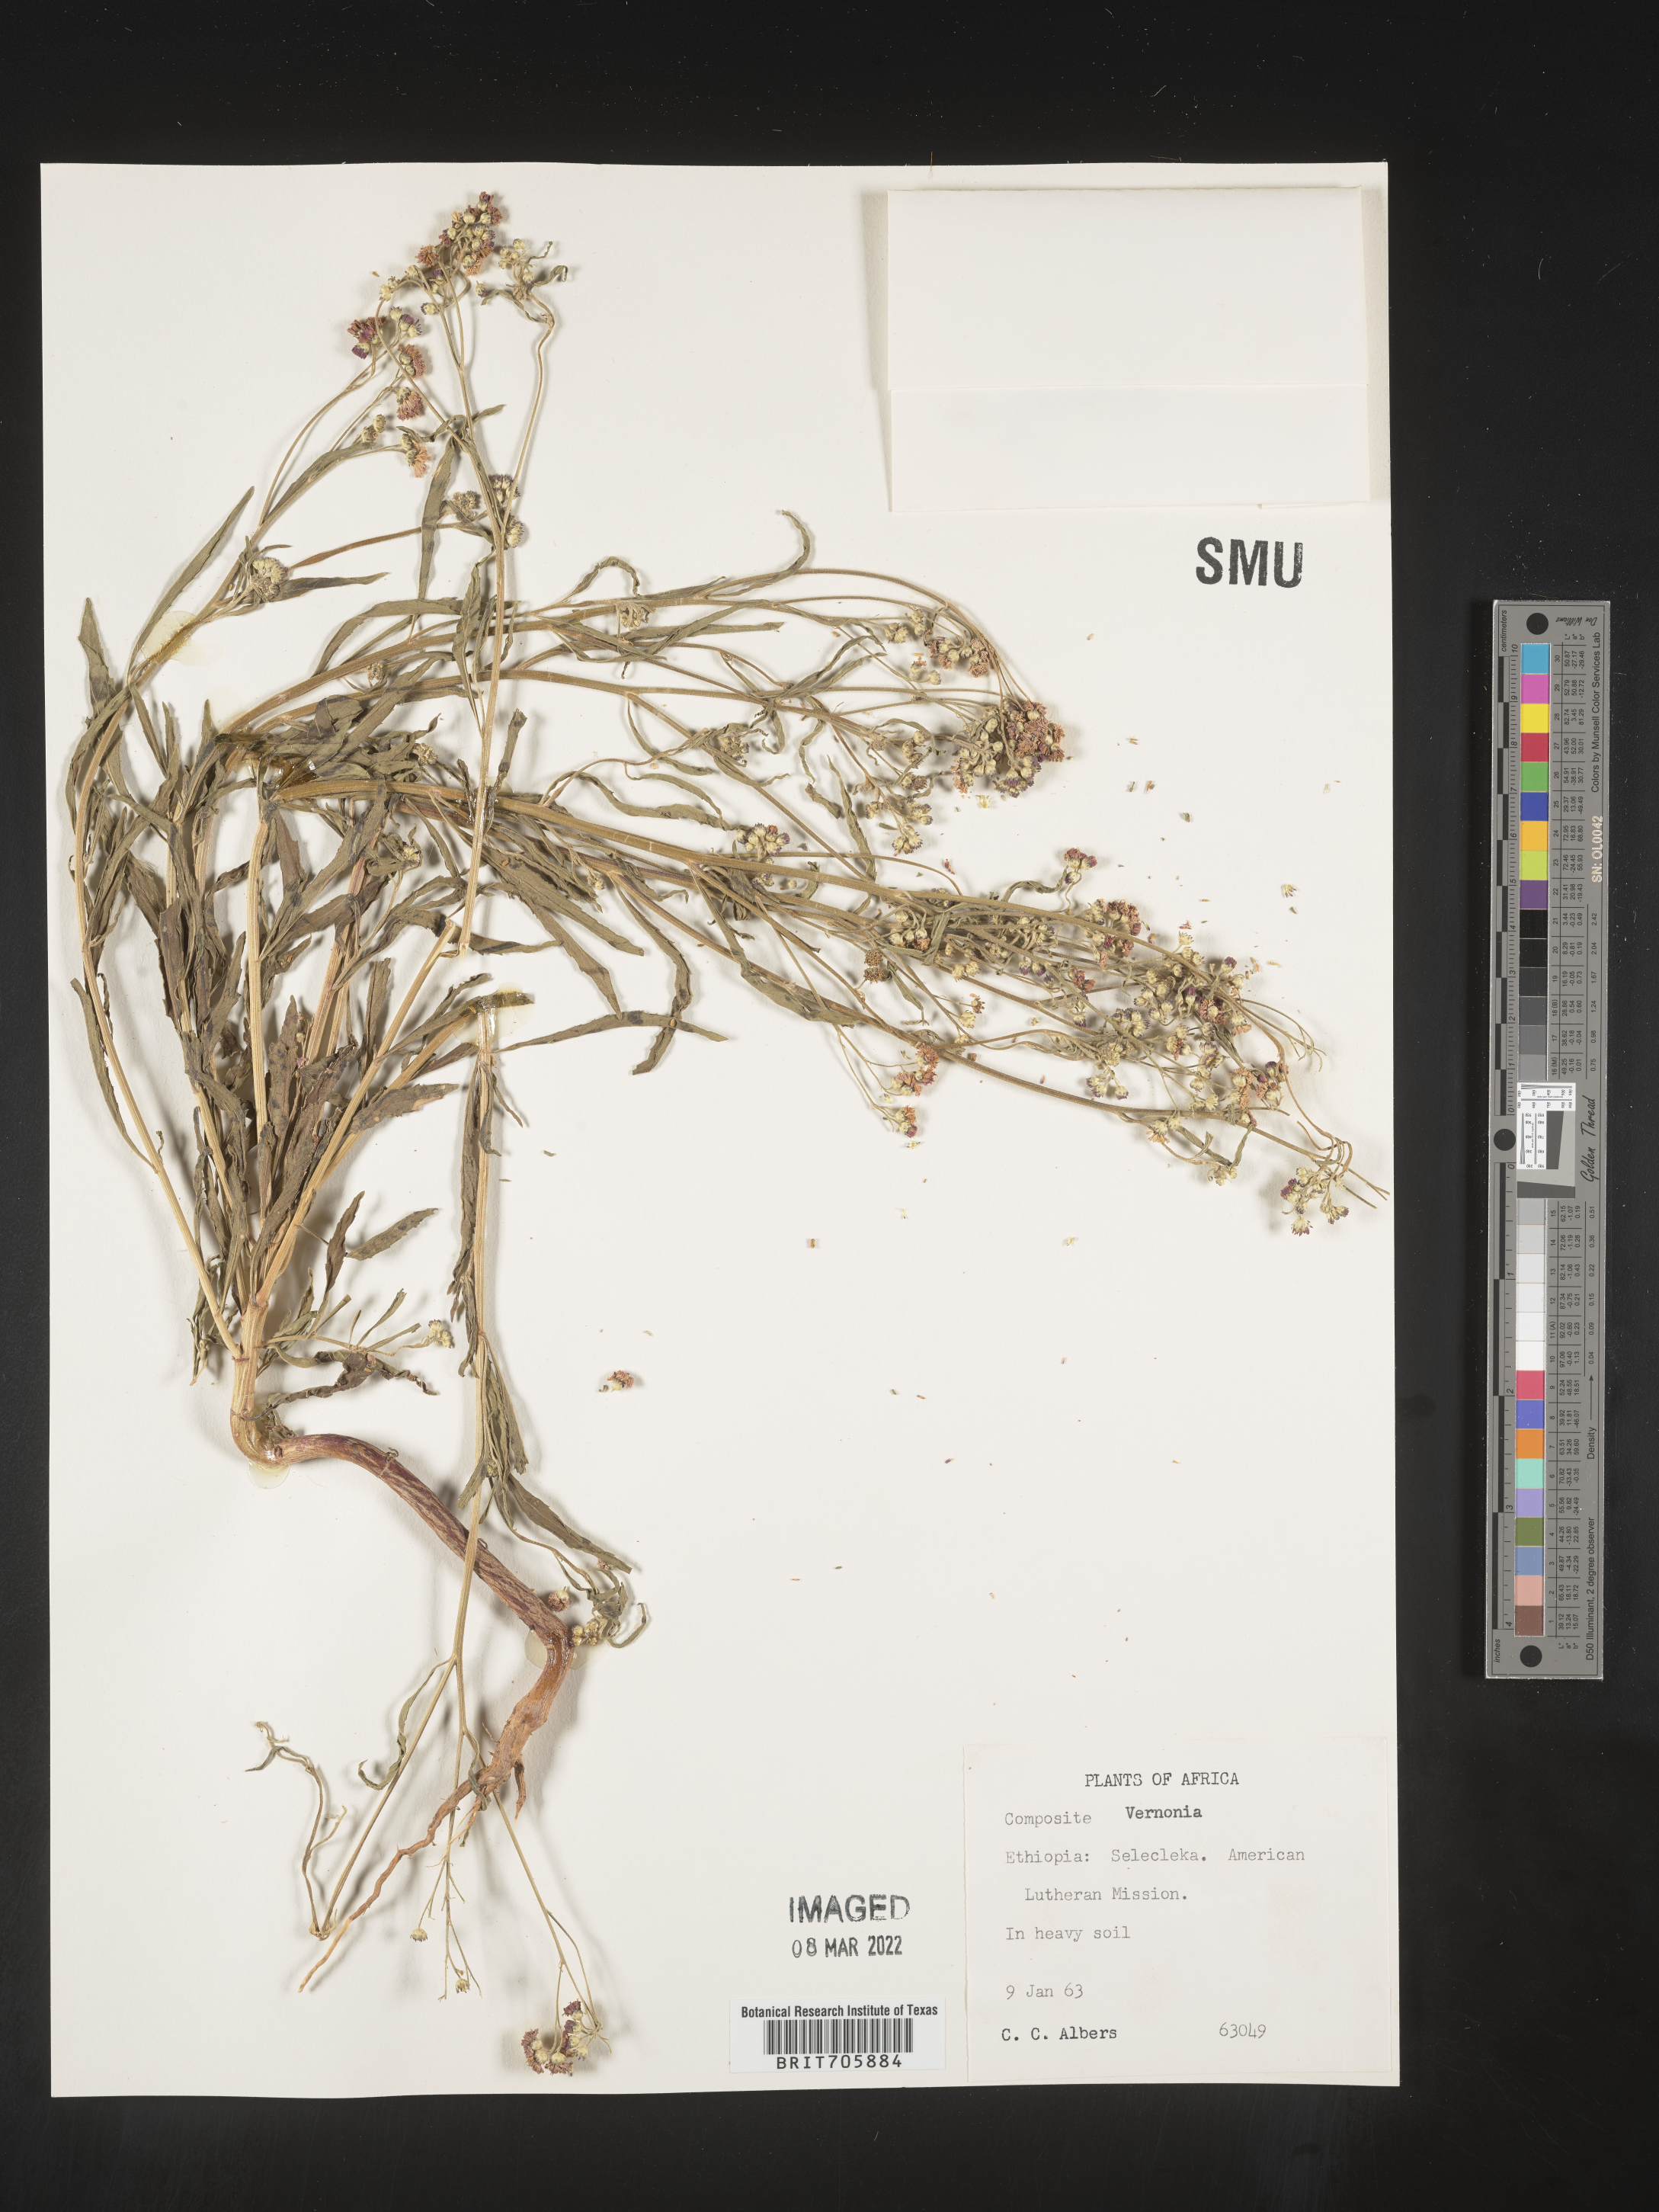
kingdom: Plantae
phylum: Tracheophyta
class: Magnoliopsida
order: Asterales
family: Asteraceae
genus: Vernonia
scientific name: Vernonia
